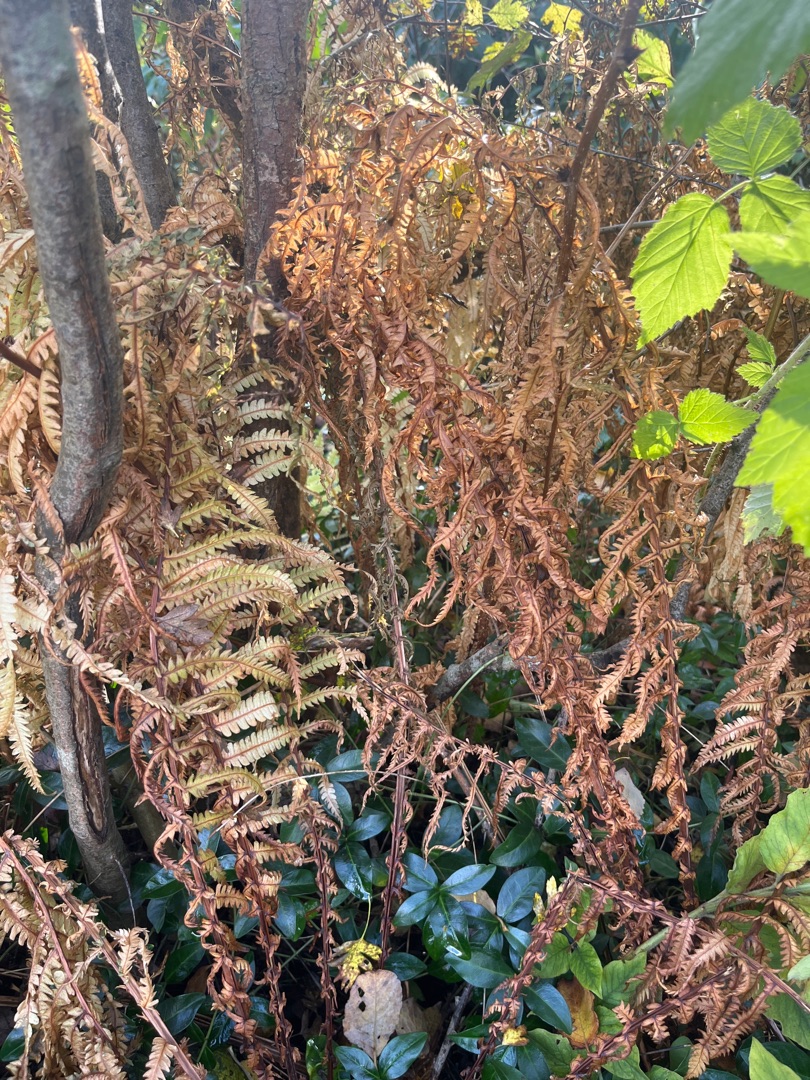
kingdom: Plantae
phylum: Tracheophyta
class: Polypodiopsida
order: Polypodiales
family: Onocleaceae
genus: Matteuccia
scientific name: Matteuccia struthiopteris
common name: Strudsvinge
